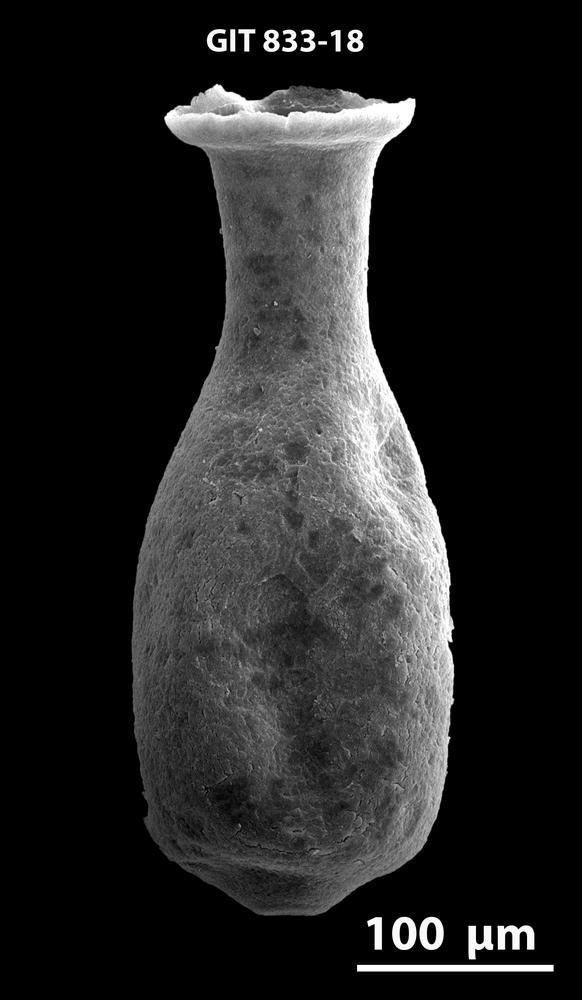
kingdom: Animalia
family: Lagenochitinidae
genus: Lagenochitina
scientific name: Lagenochitina
